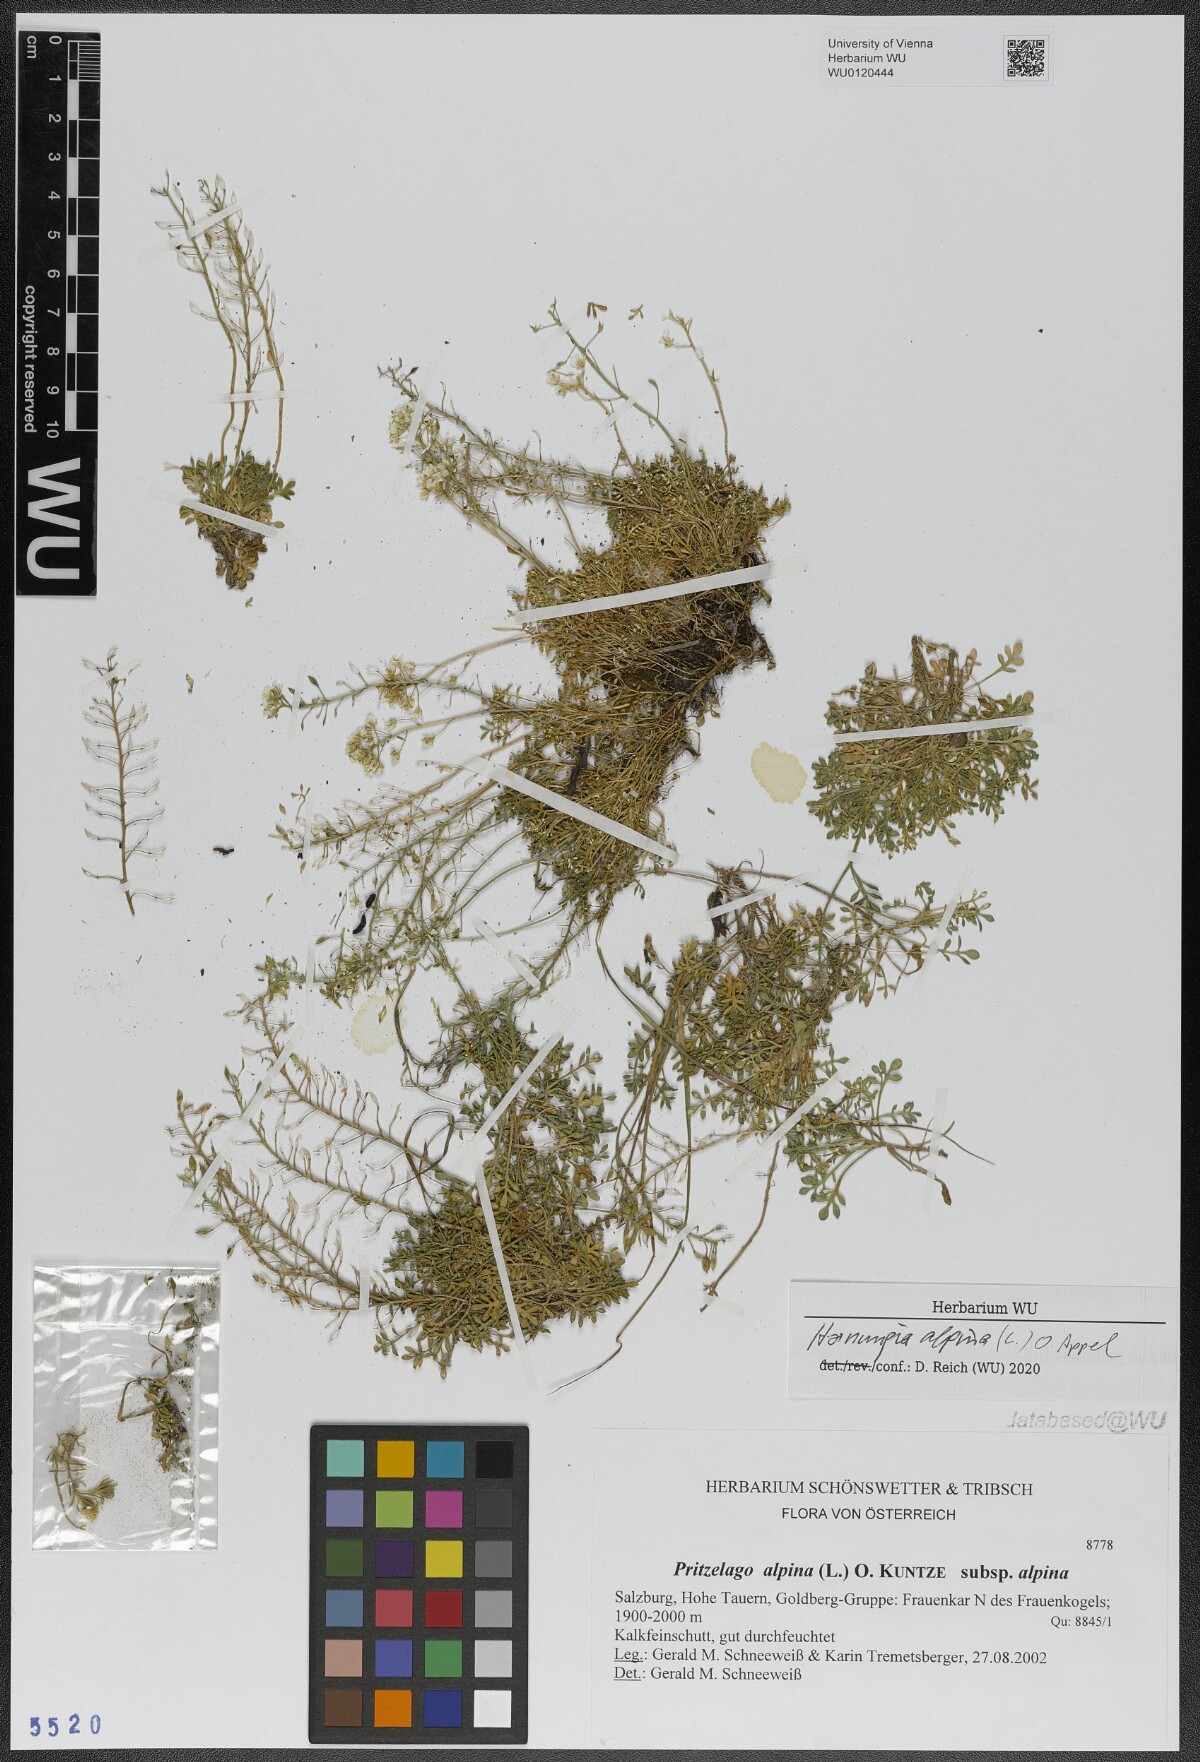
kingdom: Plantae
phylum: Tracheophyta
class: Magnoliopsida
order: Brassicales
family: Brassicaceae
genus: Hornungia
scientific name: Hornungia alpina
